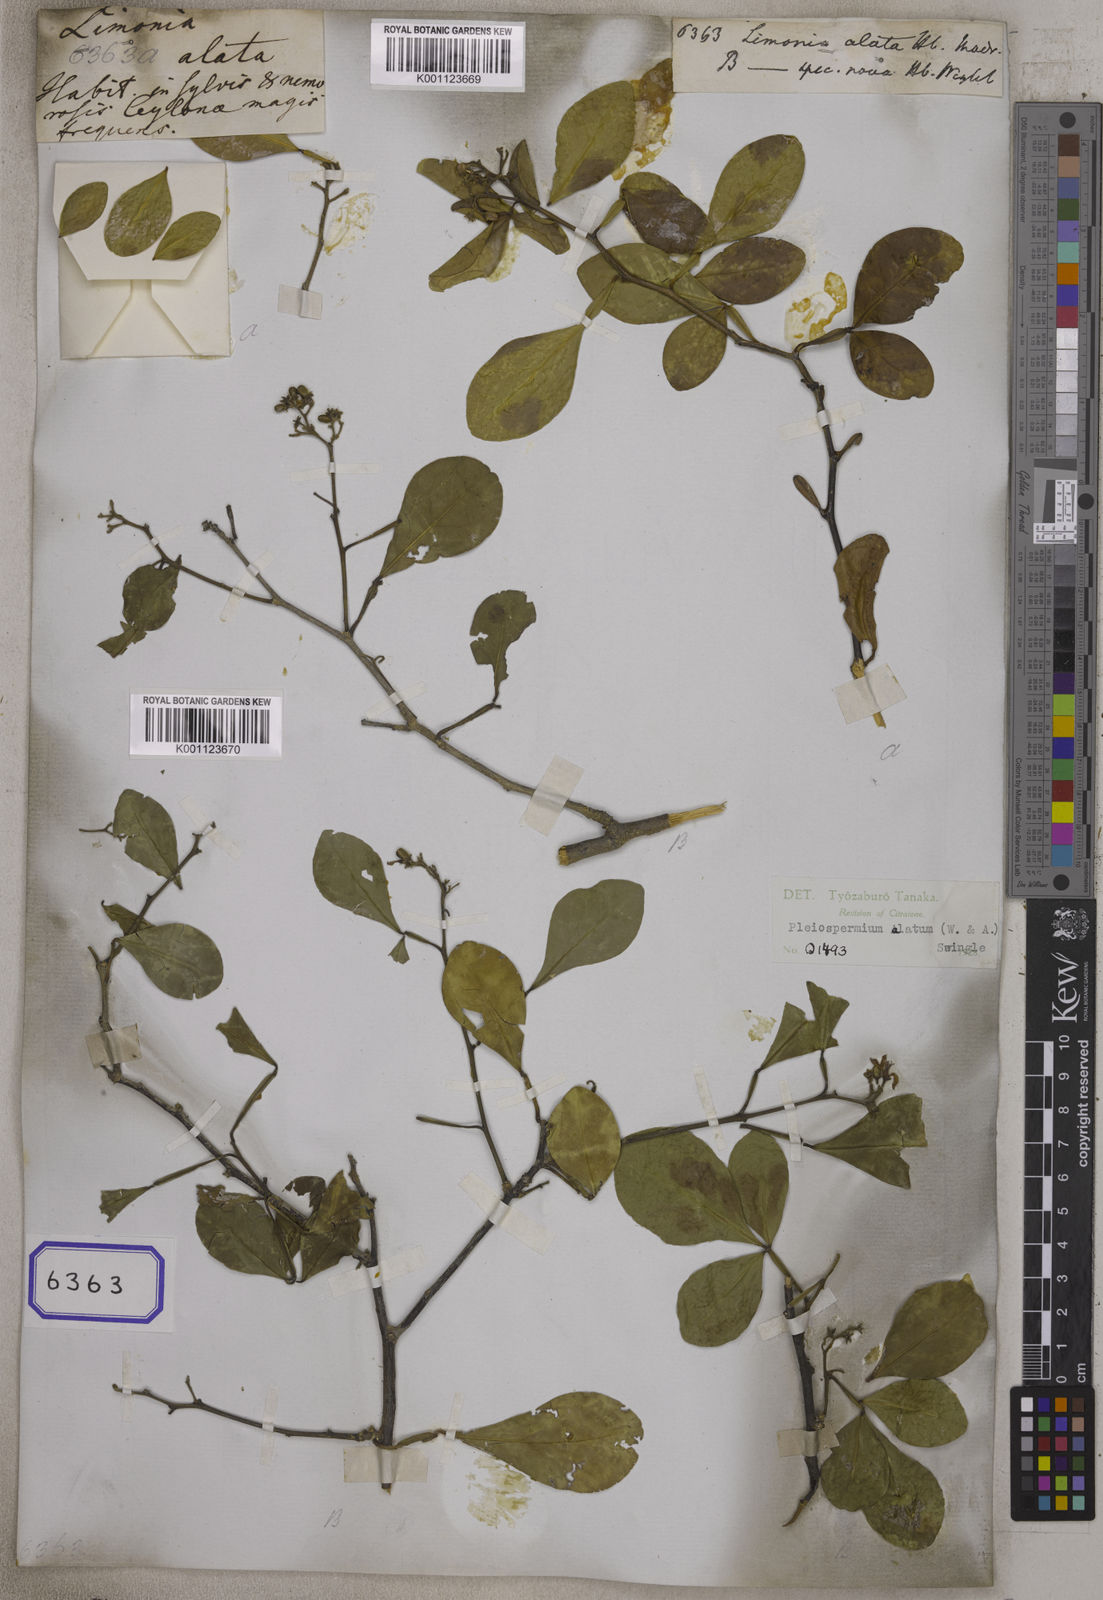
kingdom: Plantae
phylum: Tracheophyta
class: Magnoliopsida
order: Sapindales
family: Rutaceae
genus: Limonia
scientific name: Limonia
